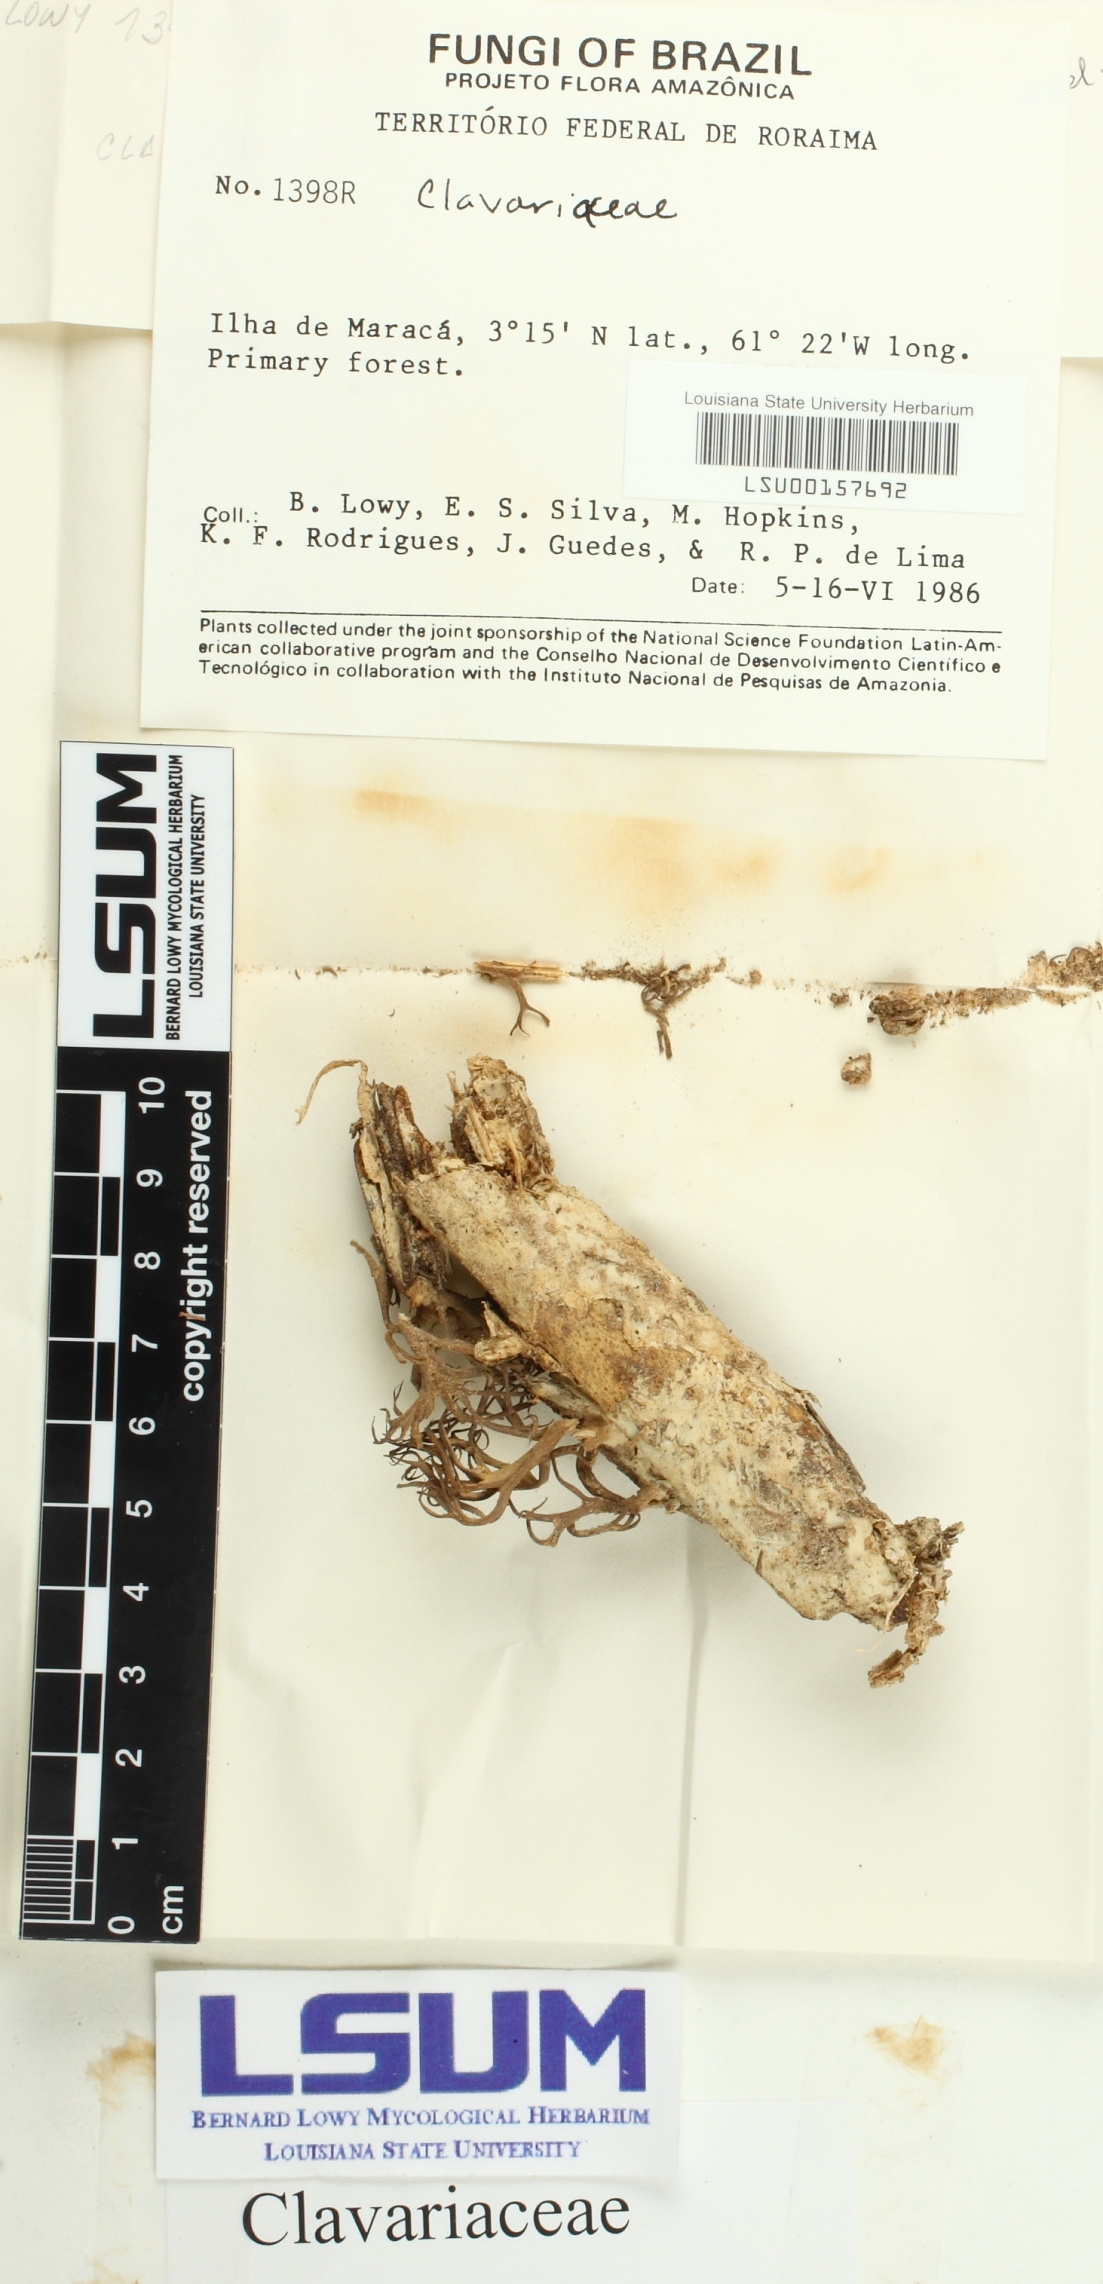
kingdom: Fungi
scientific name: Fungi
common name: Fungi
